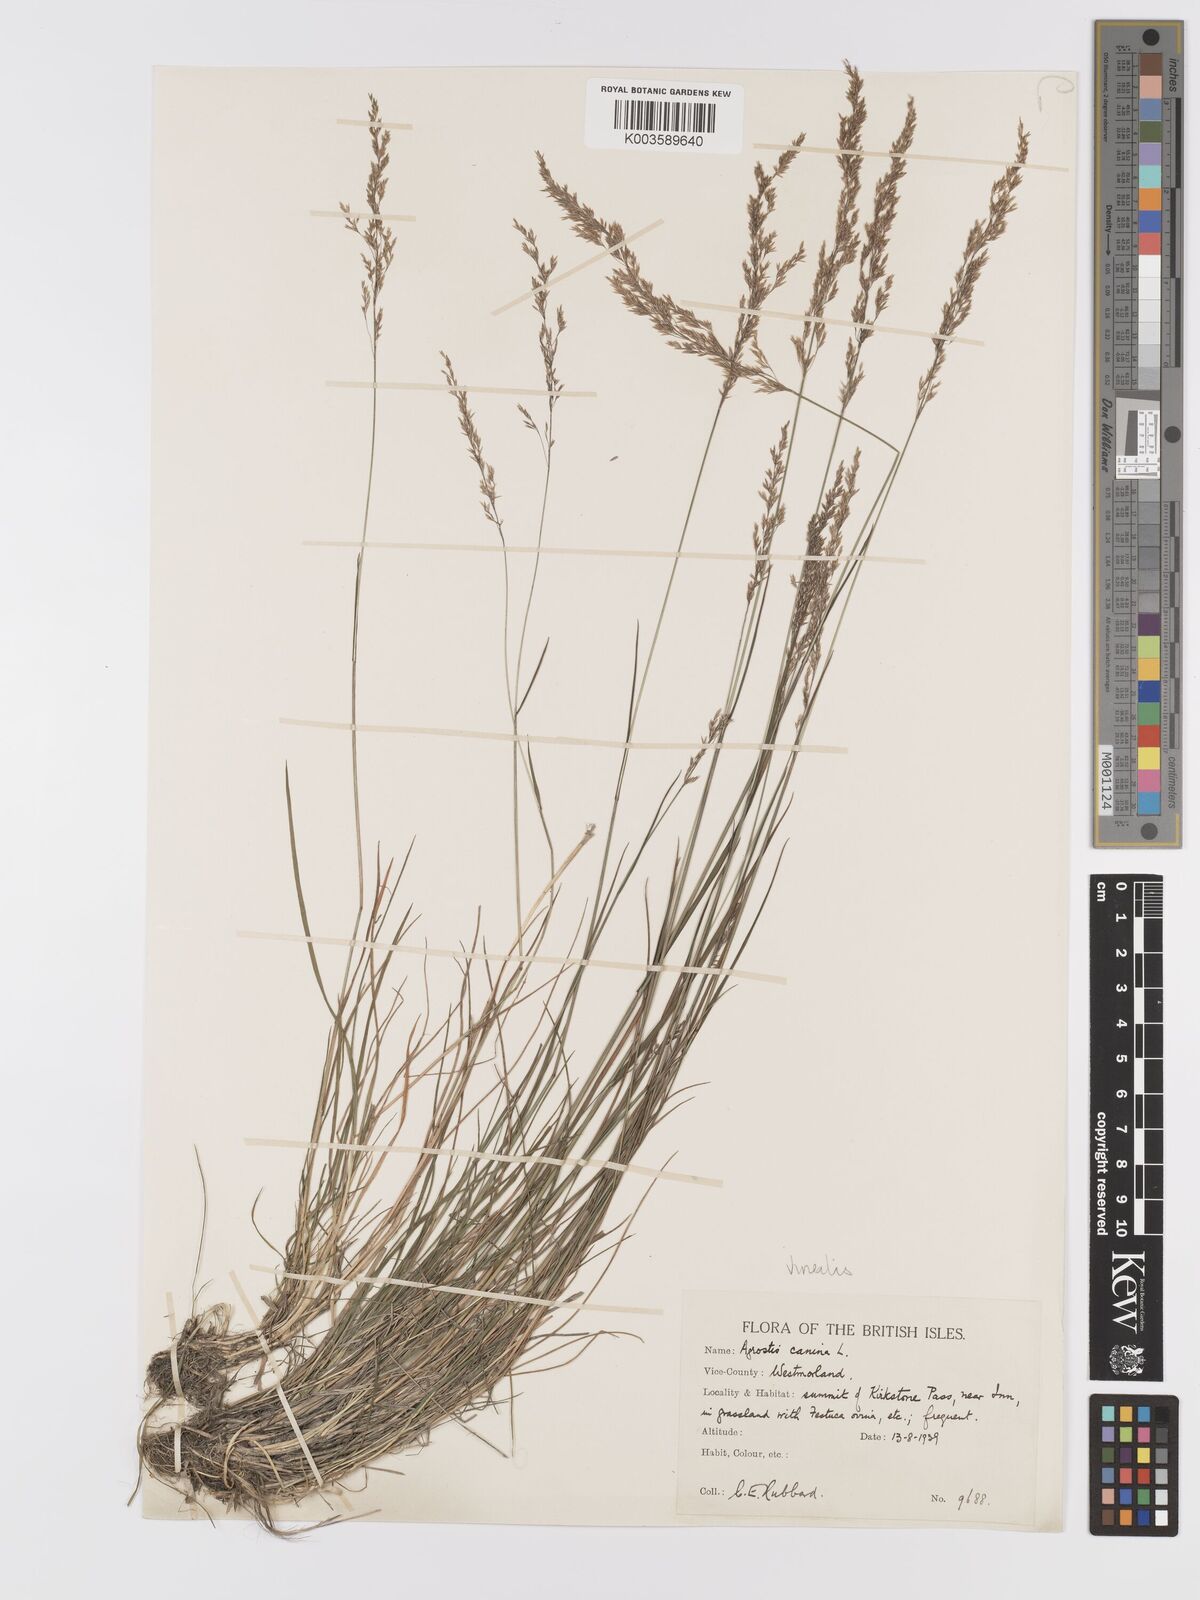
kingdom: Plantae
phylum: Tracheophyta
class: Liliopsida
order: Poales
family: Poaceae
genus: Agrostis
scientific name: Agrostis
